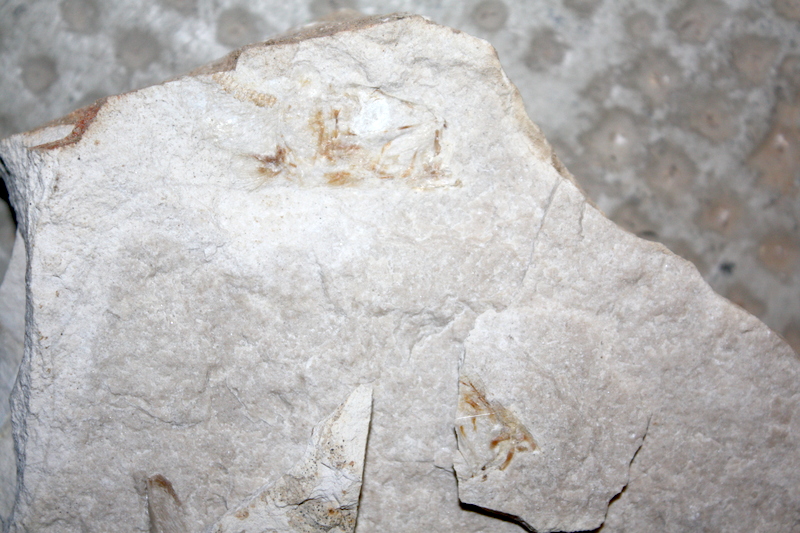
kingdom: Animalia
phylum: Chordata
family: Ascalaboidae
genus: Tharsis
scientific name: Tharsis dubius
